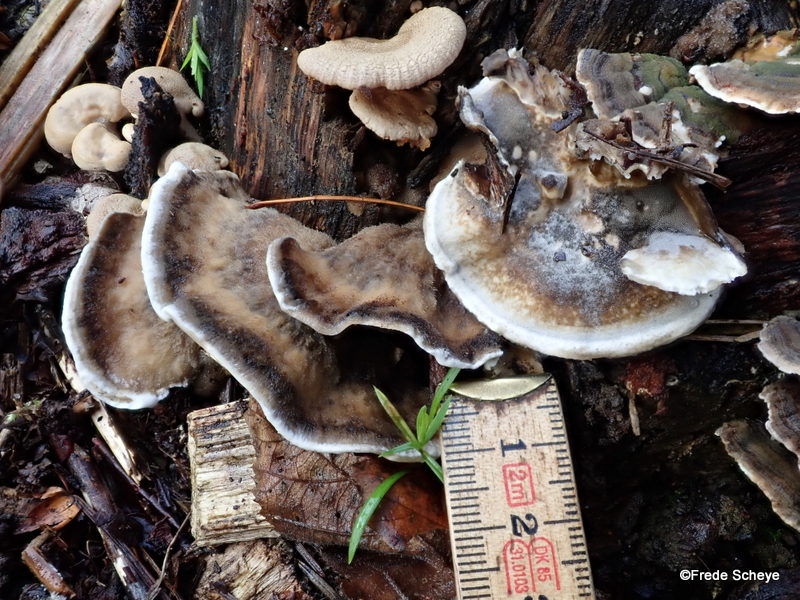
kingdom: Fungi
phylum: Basidiomycota
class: Agaricomycetes
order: Polyporales
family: Phanerochaetaceae
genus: Bjerkandera
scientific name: Bjerkandera adusta
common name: sveden sodporesvamp
